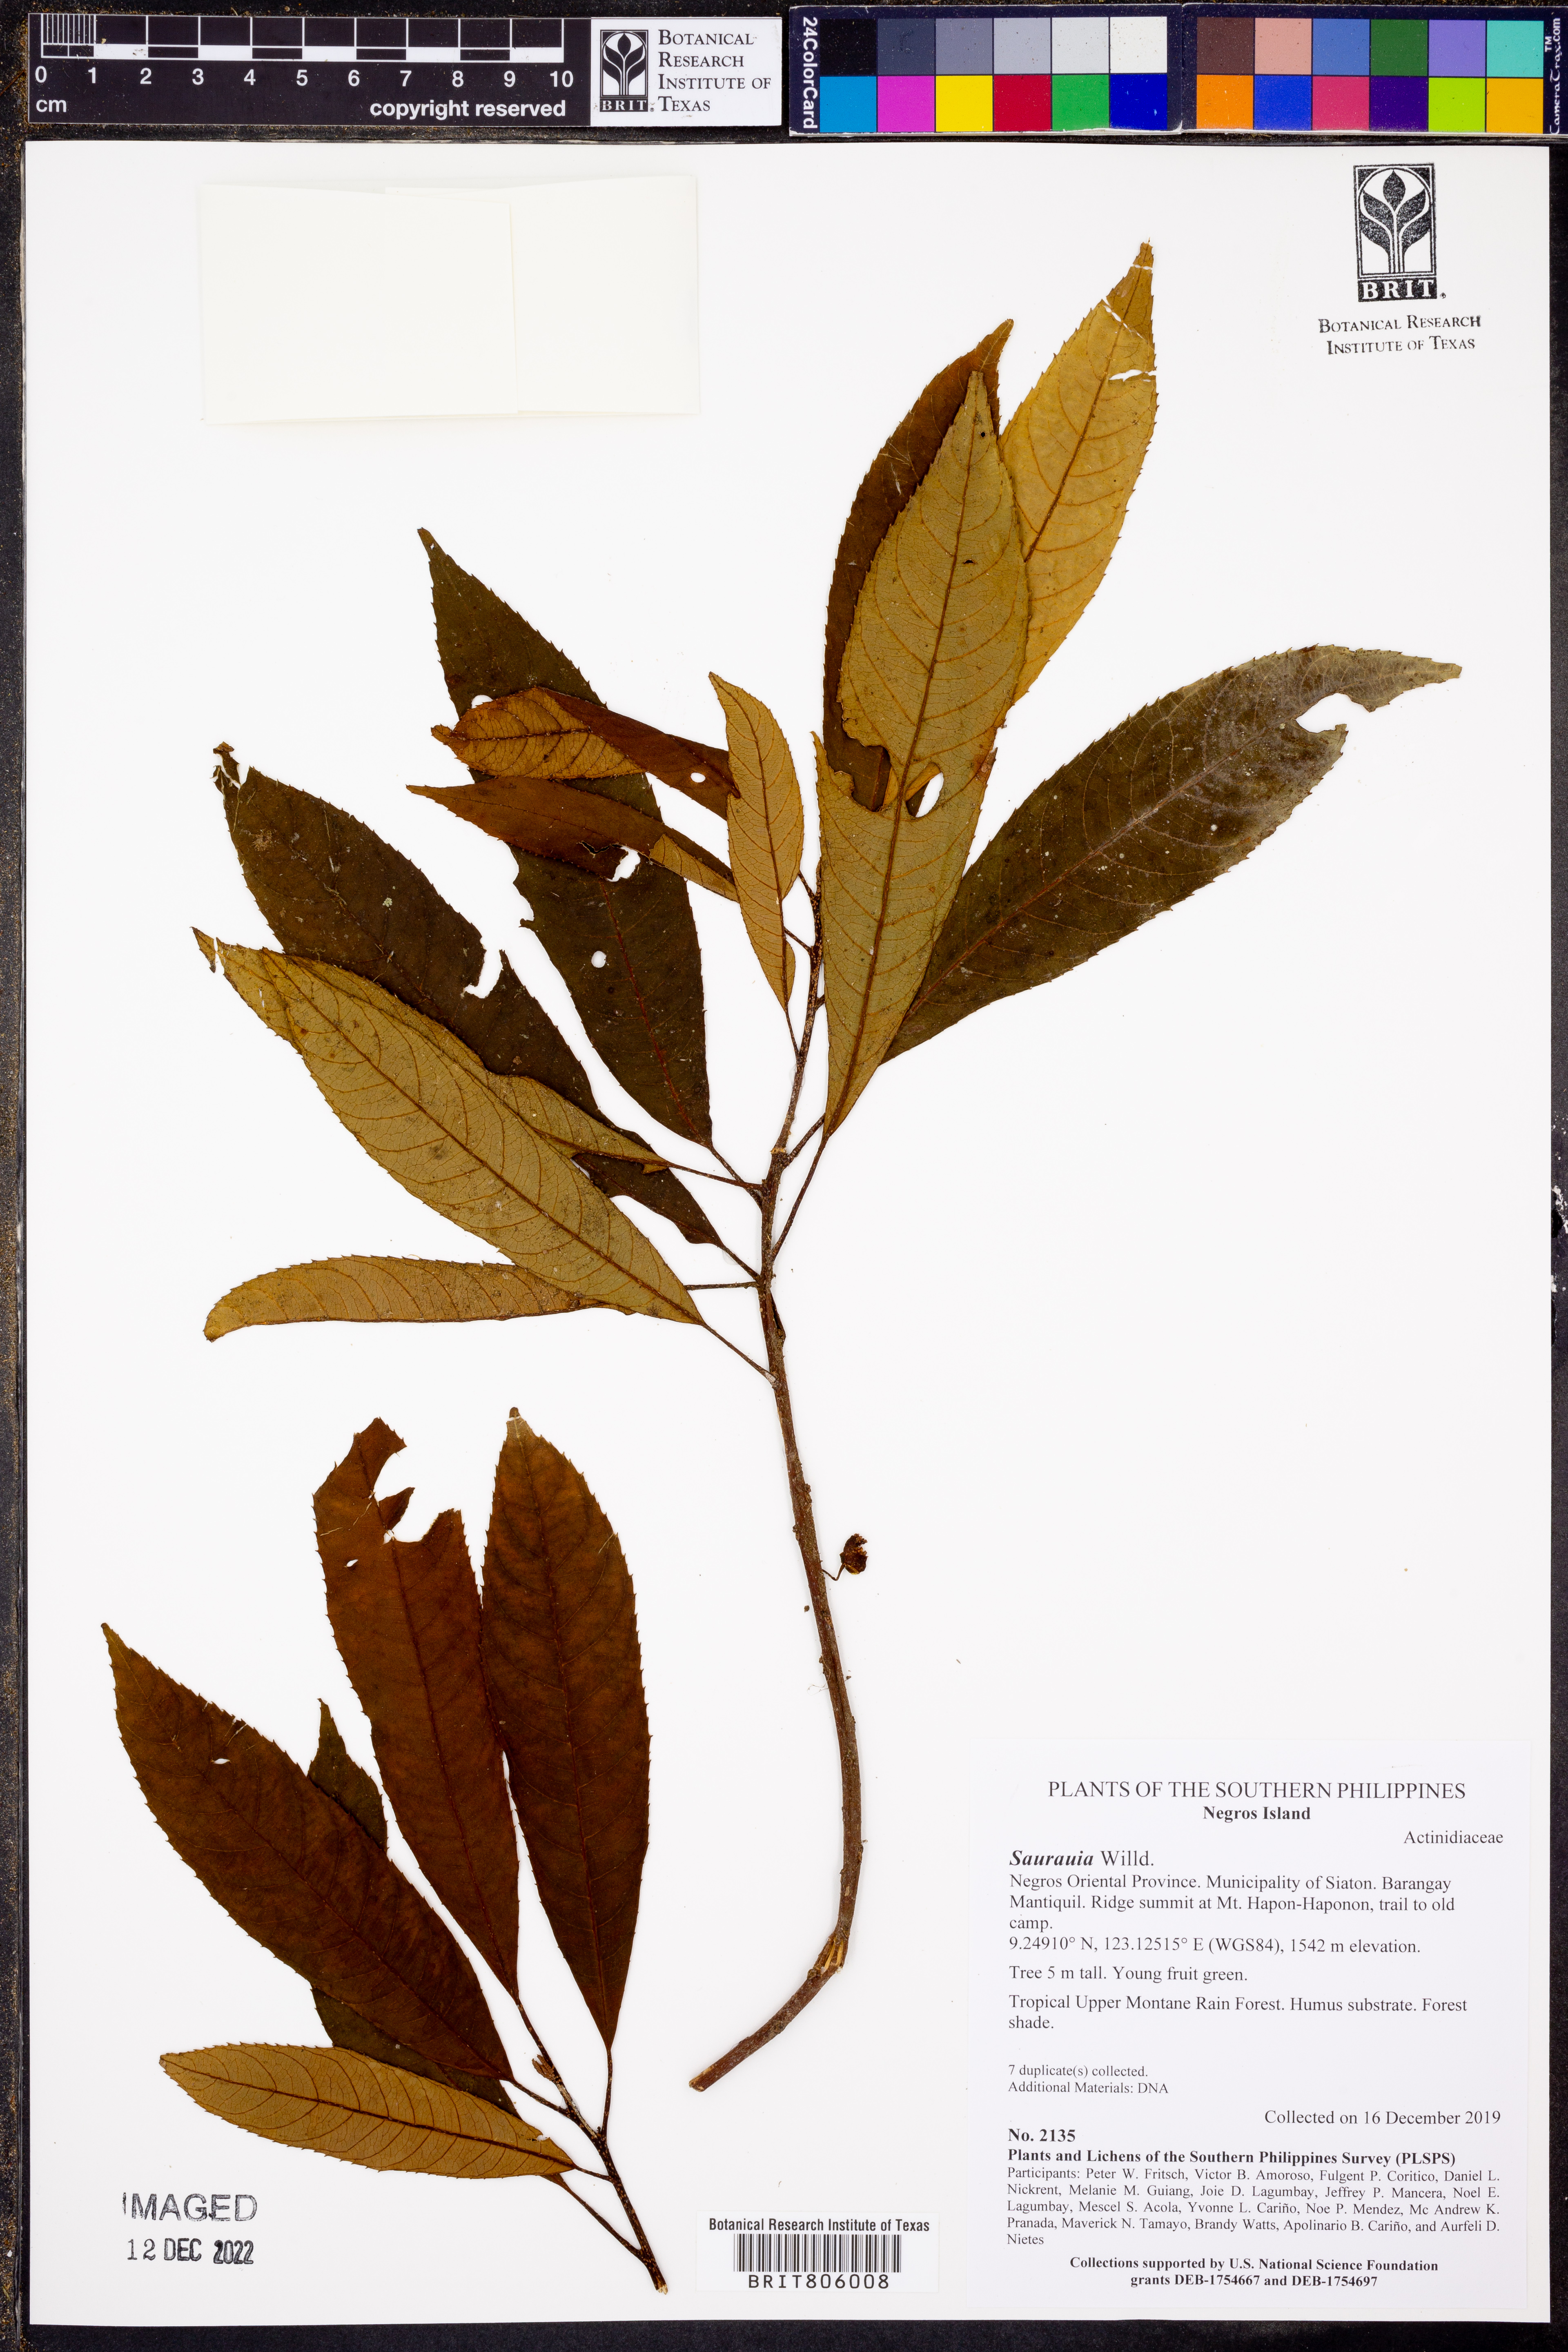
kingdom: Plantae
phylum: Tracheophyta
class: Magnoliopsida
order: Ericales
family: Actinidiaceae
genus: Saurauia
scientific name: Saurauia
